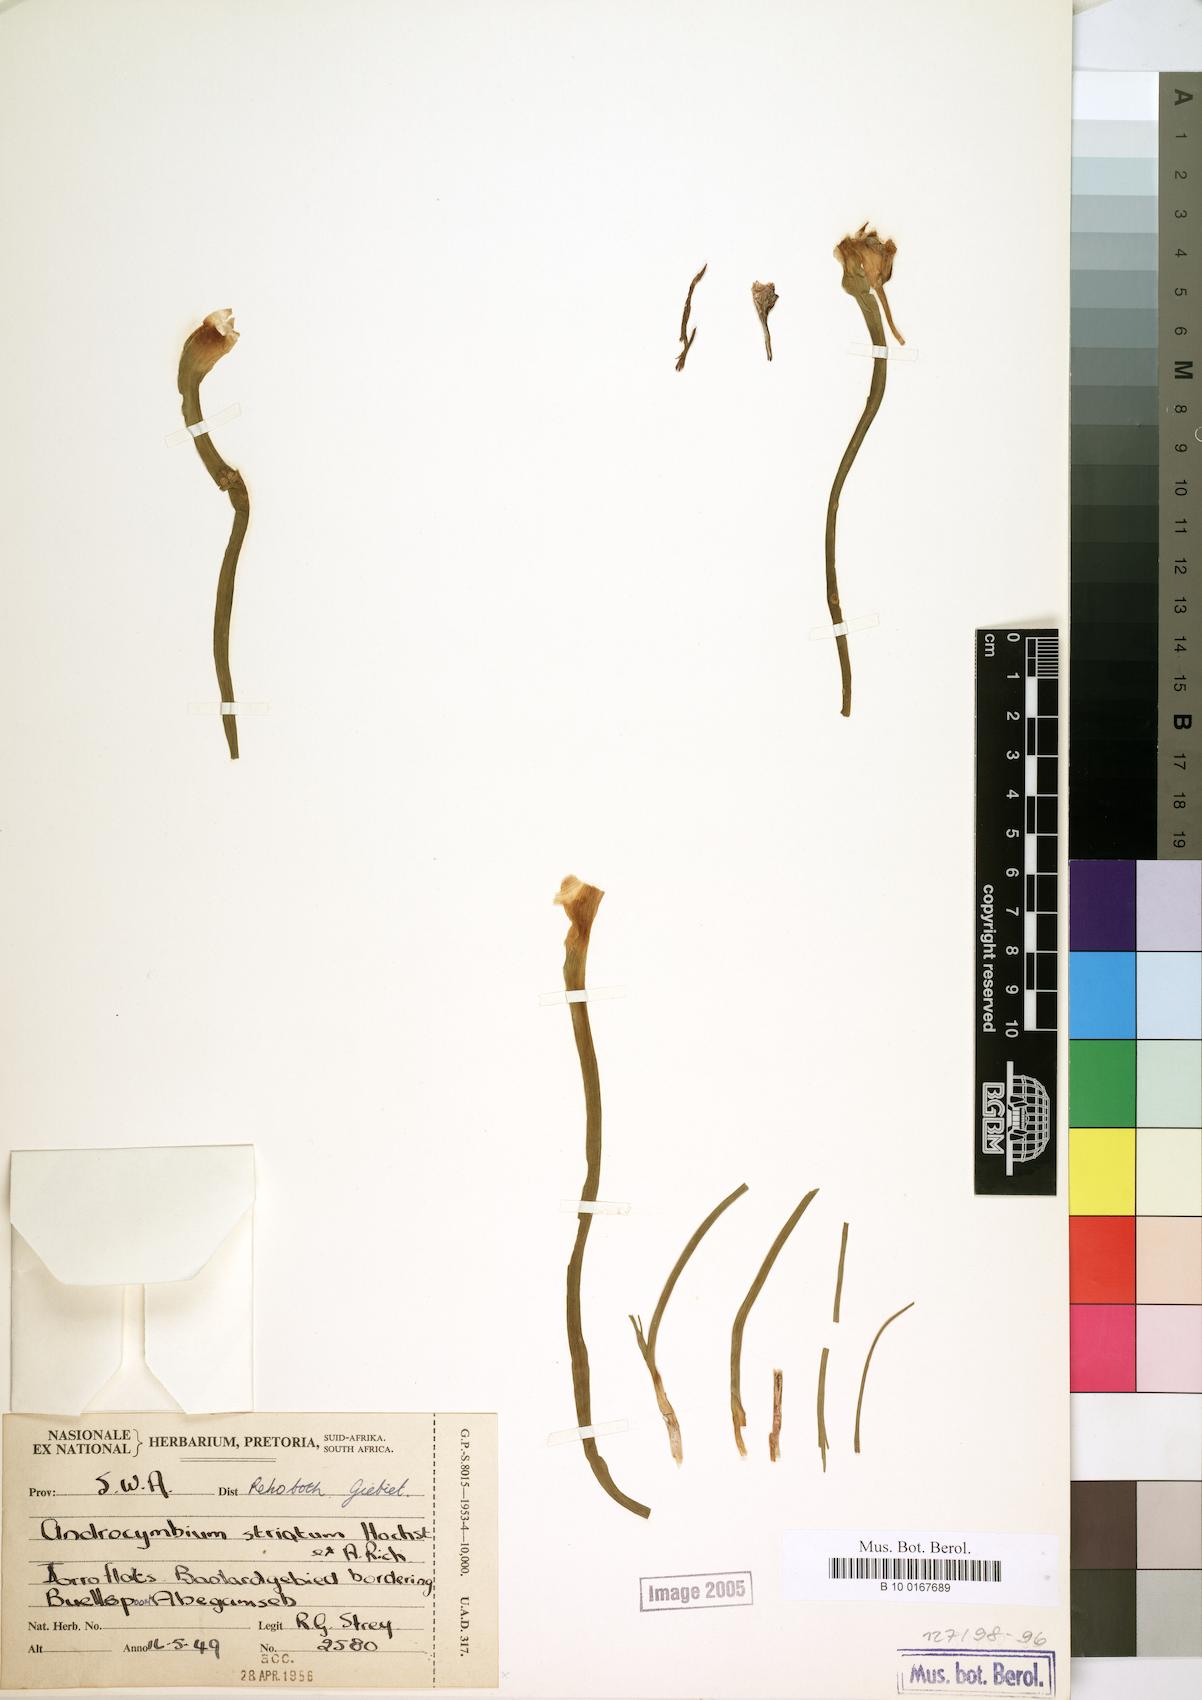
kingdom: Plantae
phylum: Tracheophyta
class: Liliopsida
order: Liliales
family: Colchicaceae
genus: Colchicum
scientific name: Colchicum striatum
